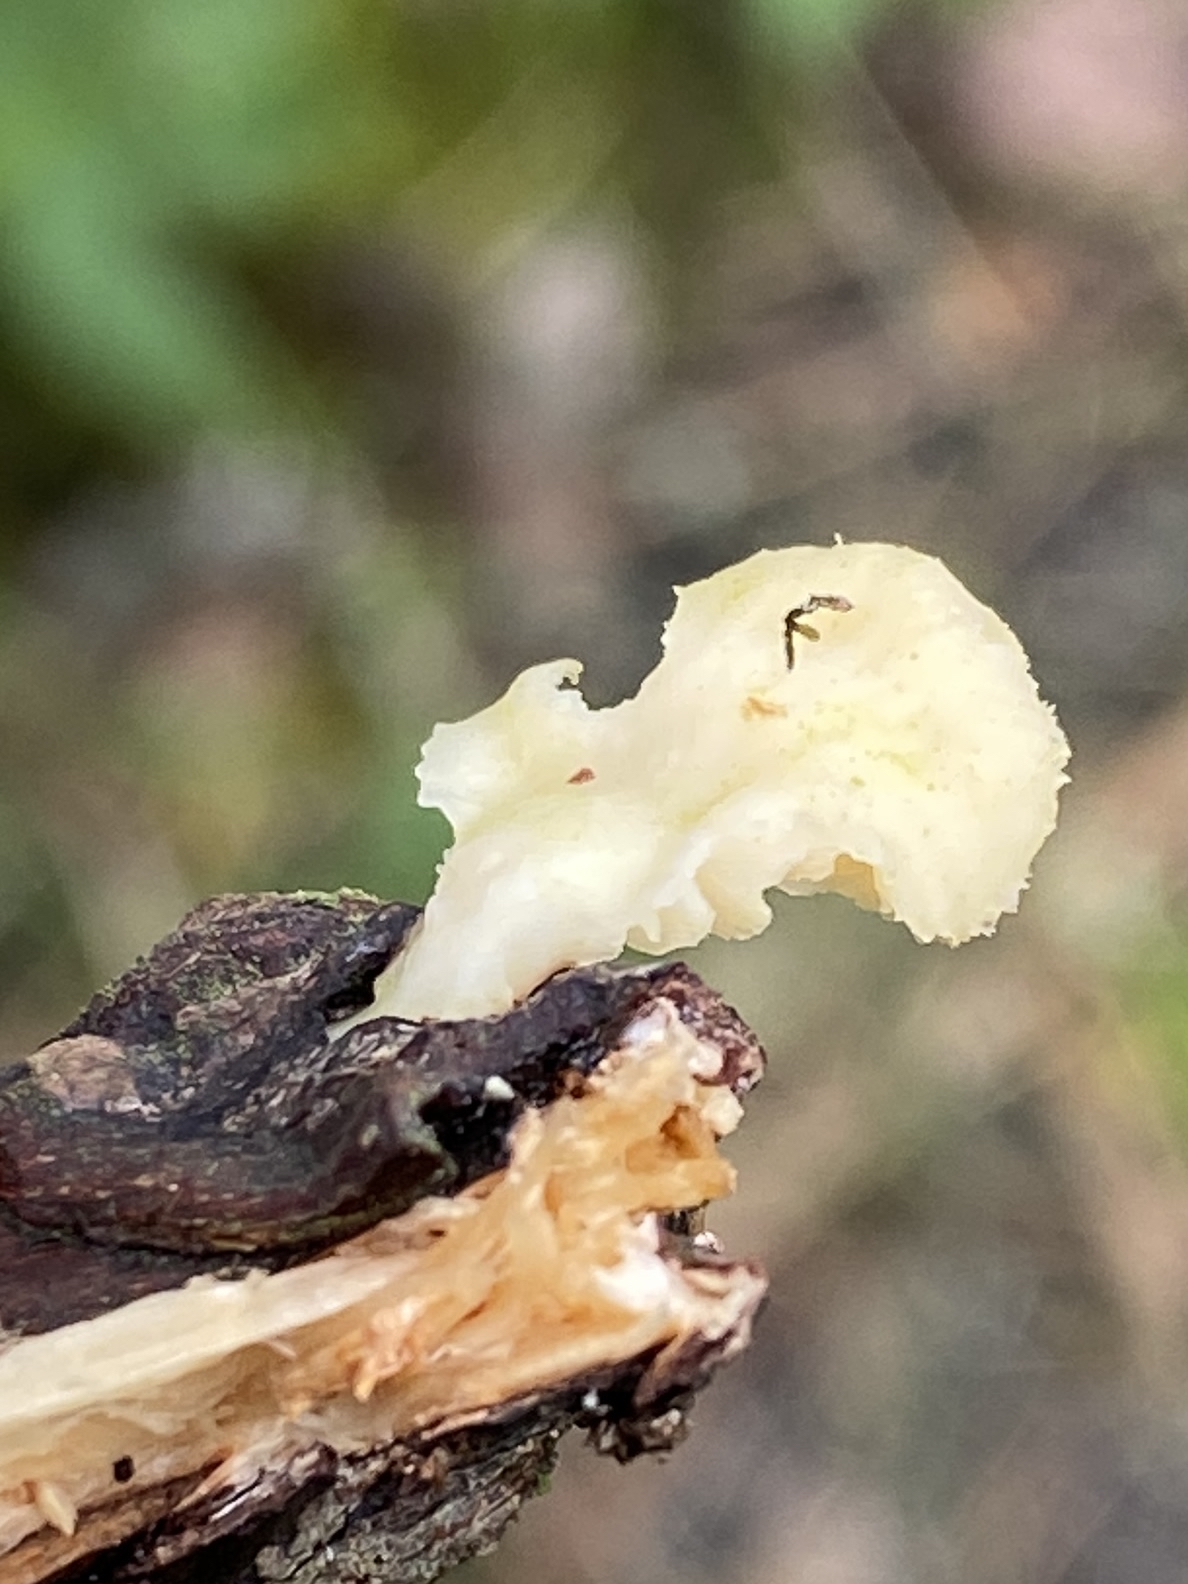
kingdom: Fungi
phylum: Basidiomycota
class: Agaricomycetes
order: Polyporales
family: Polyporaceae
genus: Neofavolus
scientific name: Neofavolus suavissimus
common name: anishat
